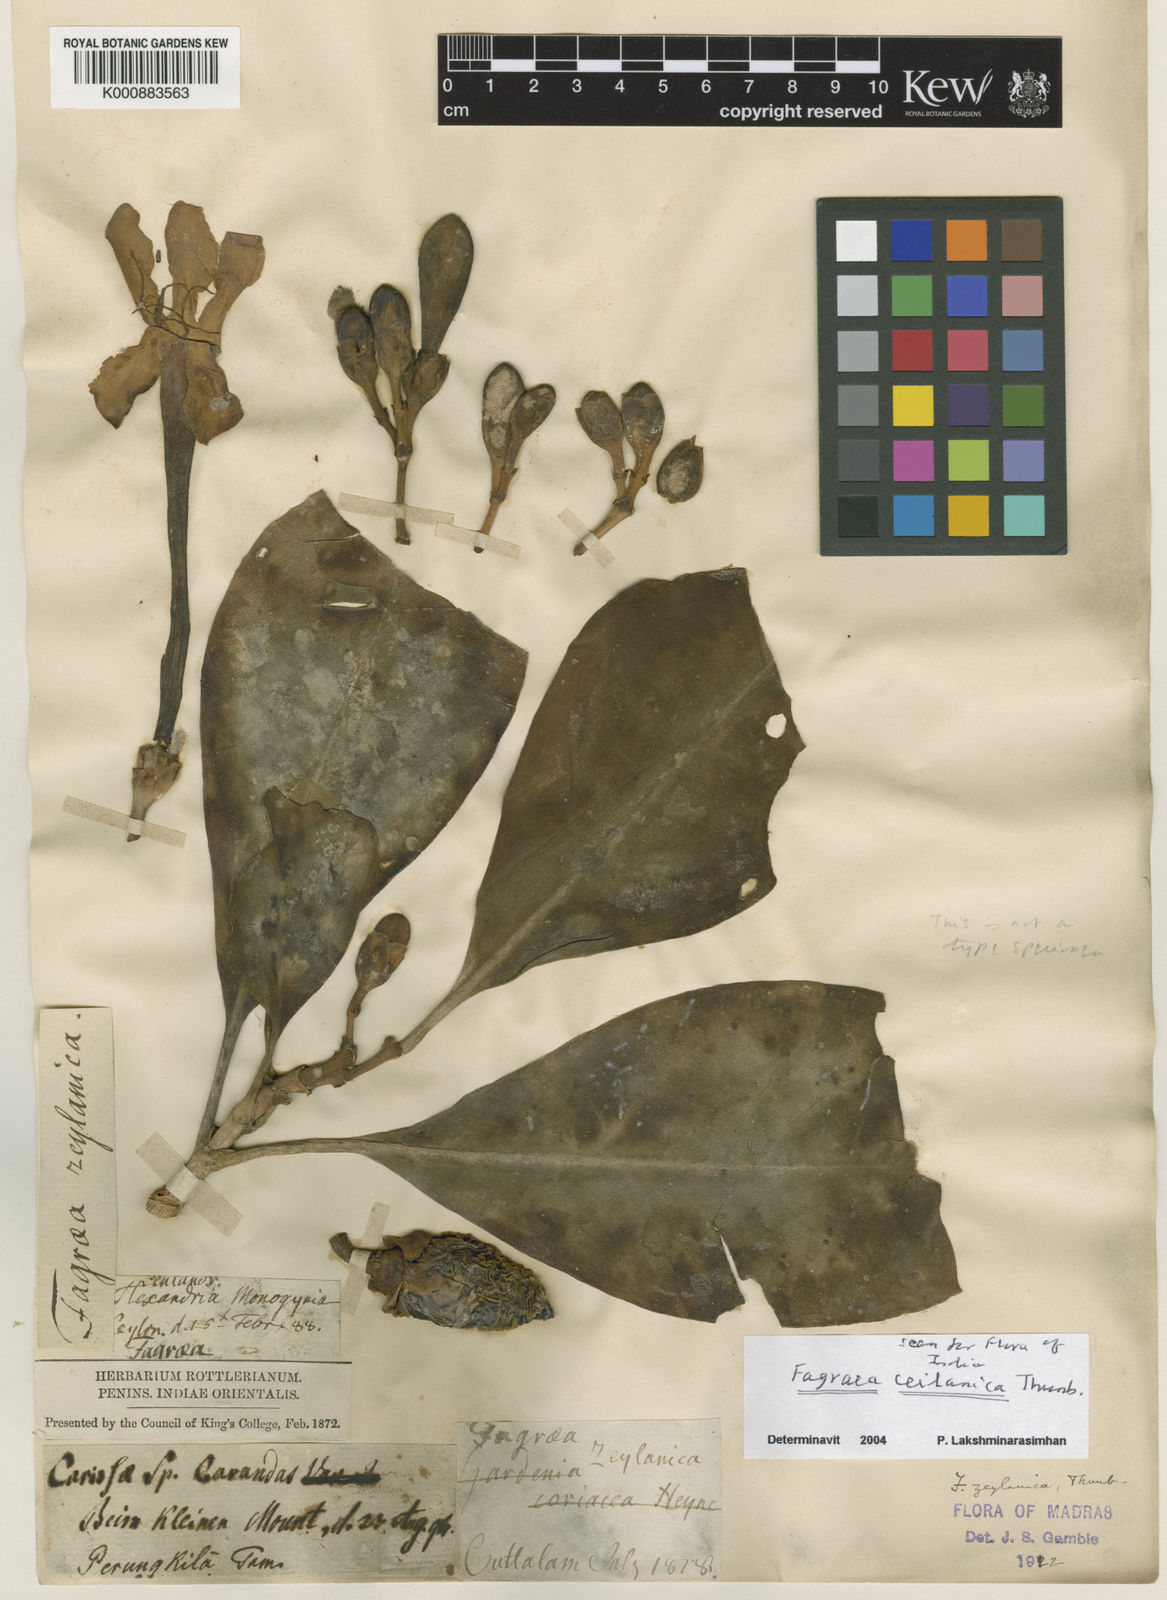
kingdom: Plantae
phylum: Tracheophyta
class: Magnoliopsida
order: Gentianales
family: Gentianaceae
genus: Fagraea
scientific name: Fagraea
